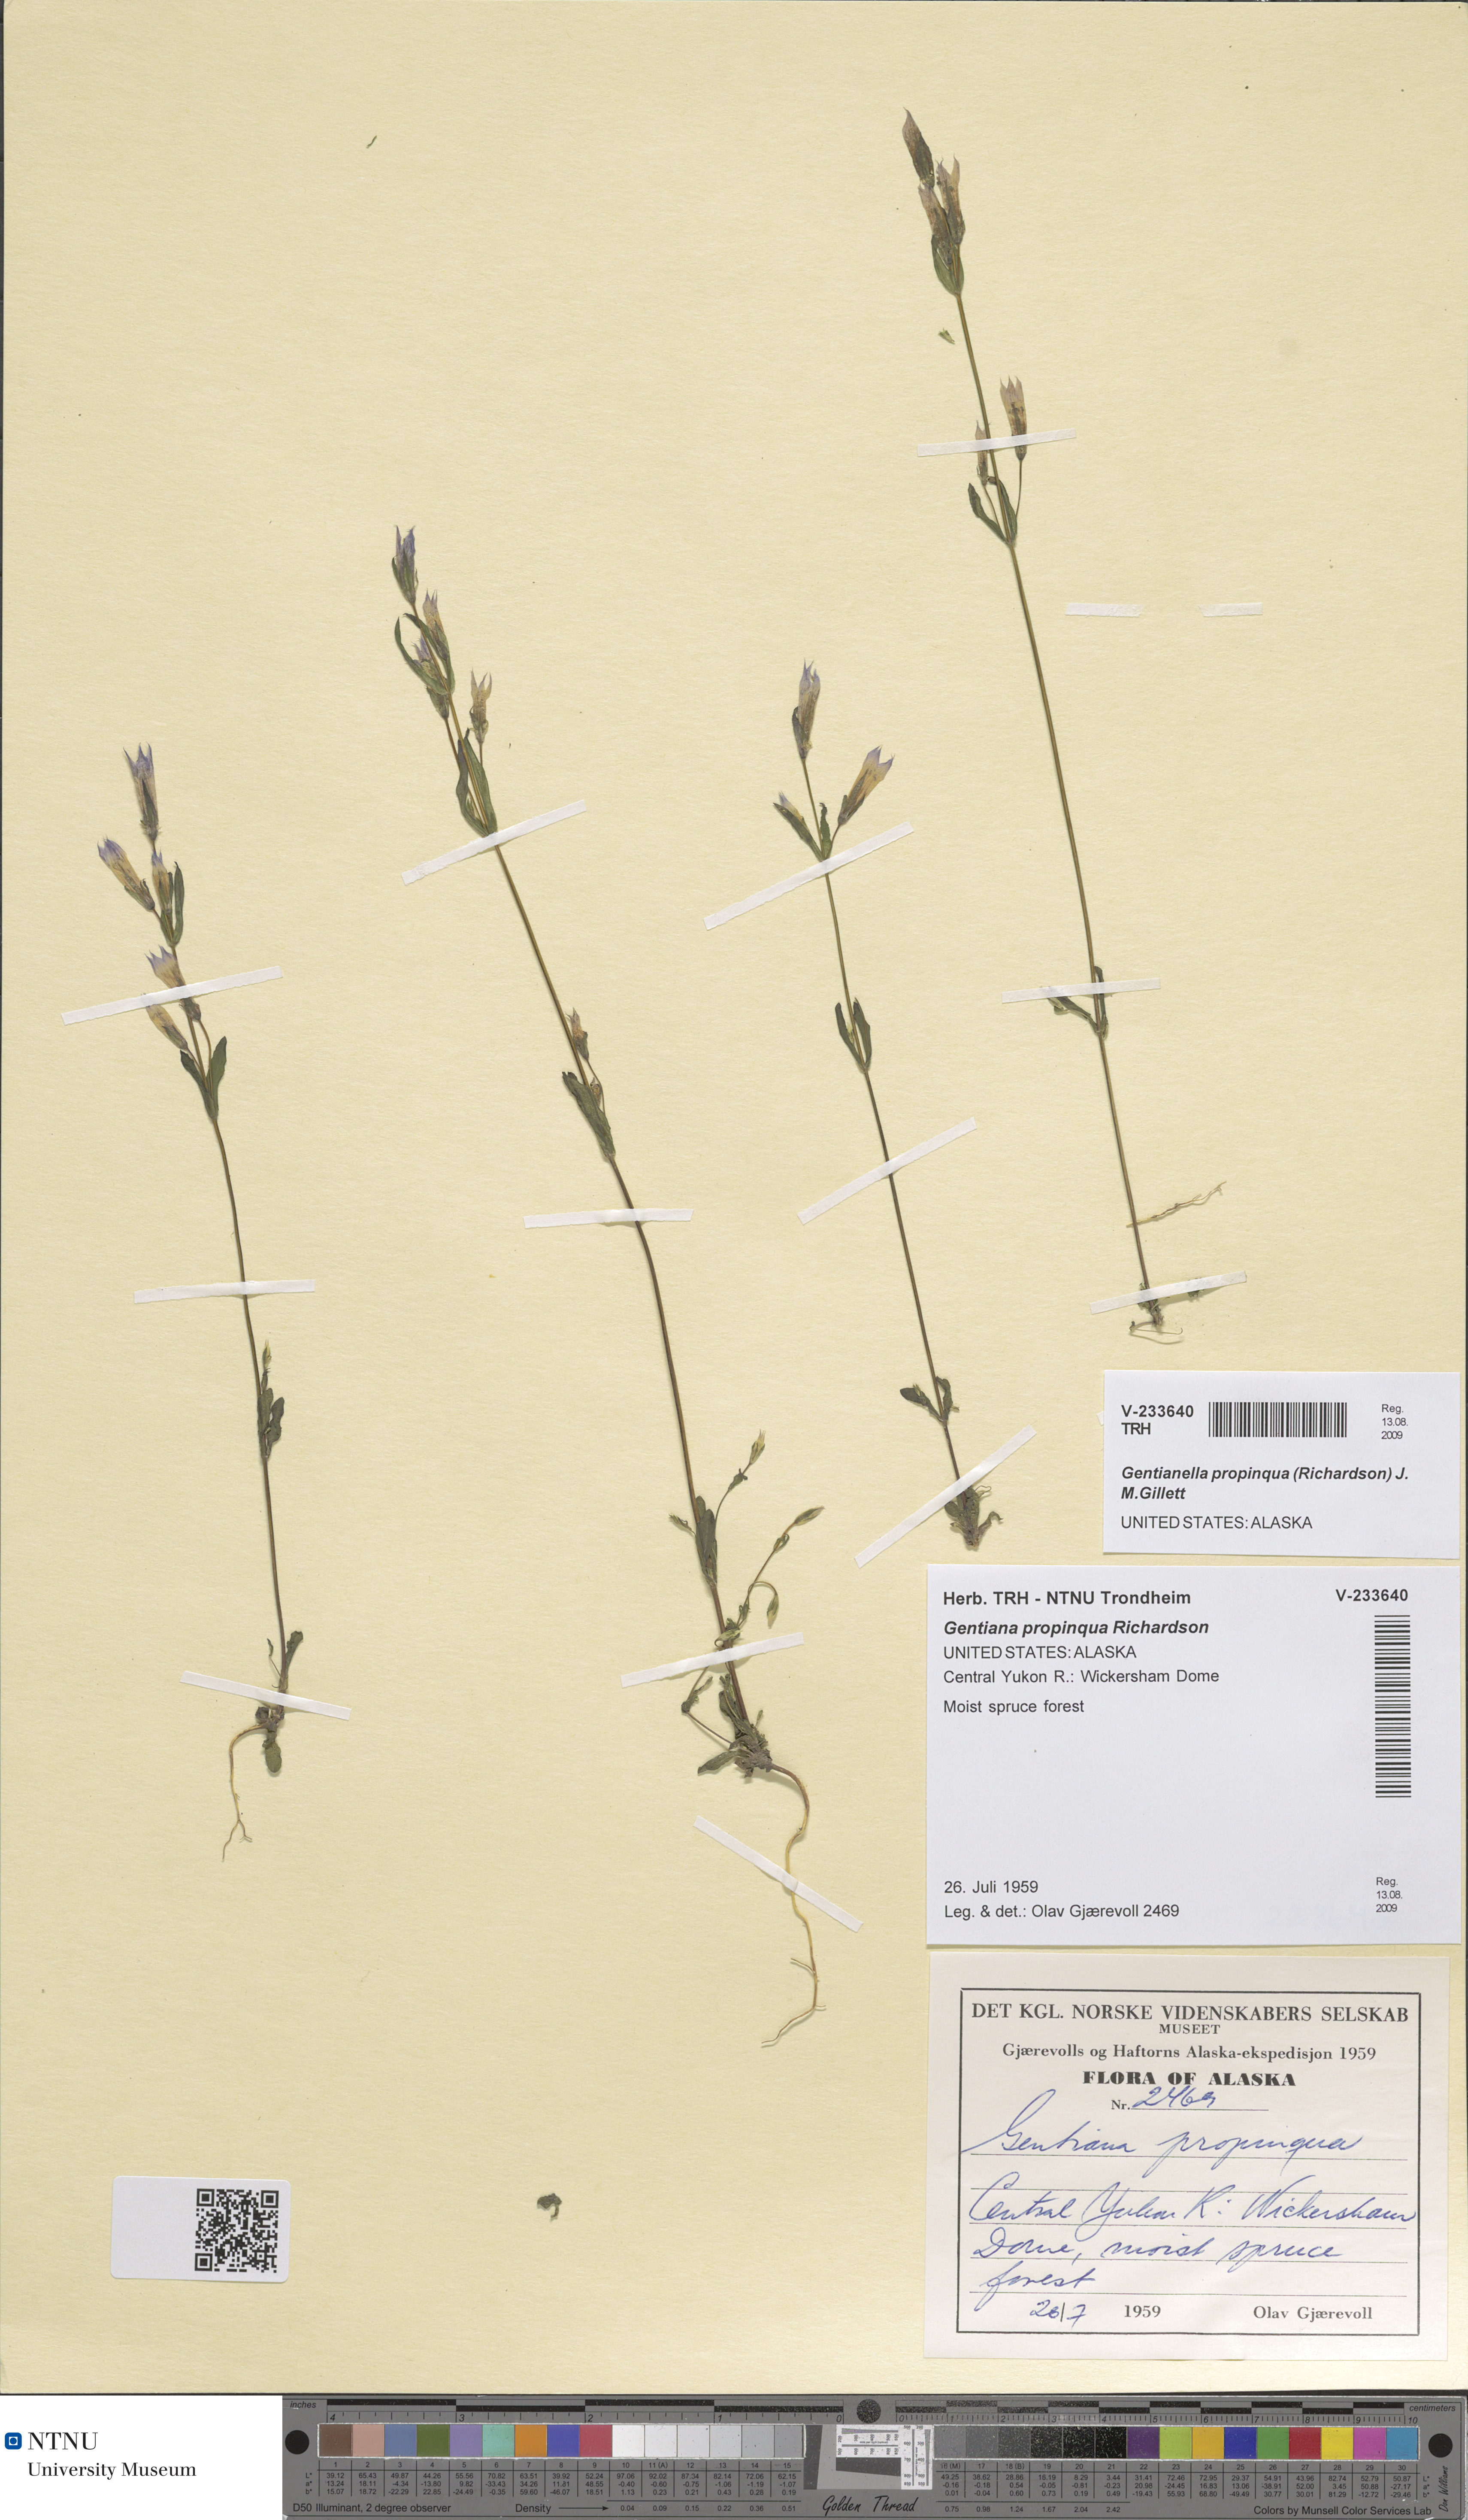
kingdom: Plantae
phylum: Tracheophyta
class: Magnoliopsida
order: Gentianales
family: Gentianaceae
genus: Gentianella
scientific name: Gentianella propinqua
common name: Four-parted dwarf-gentian
